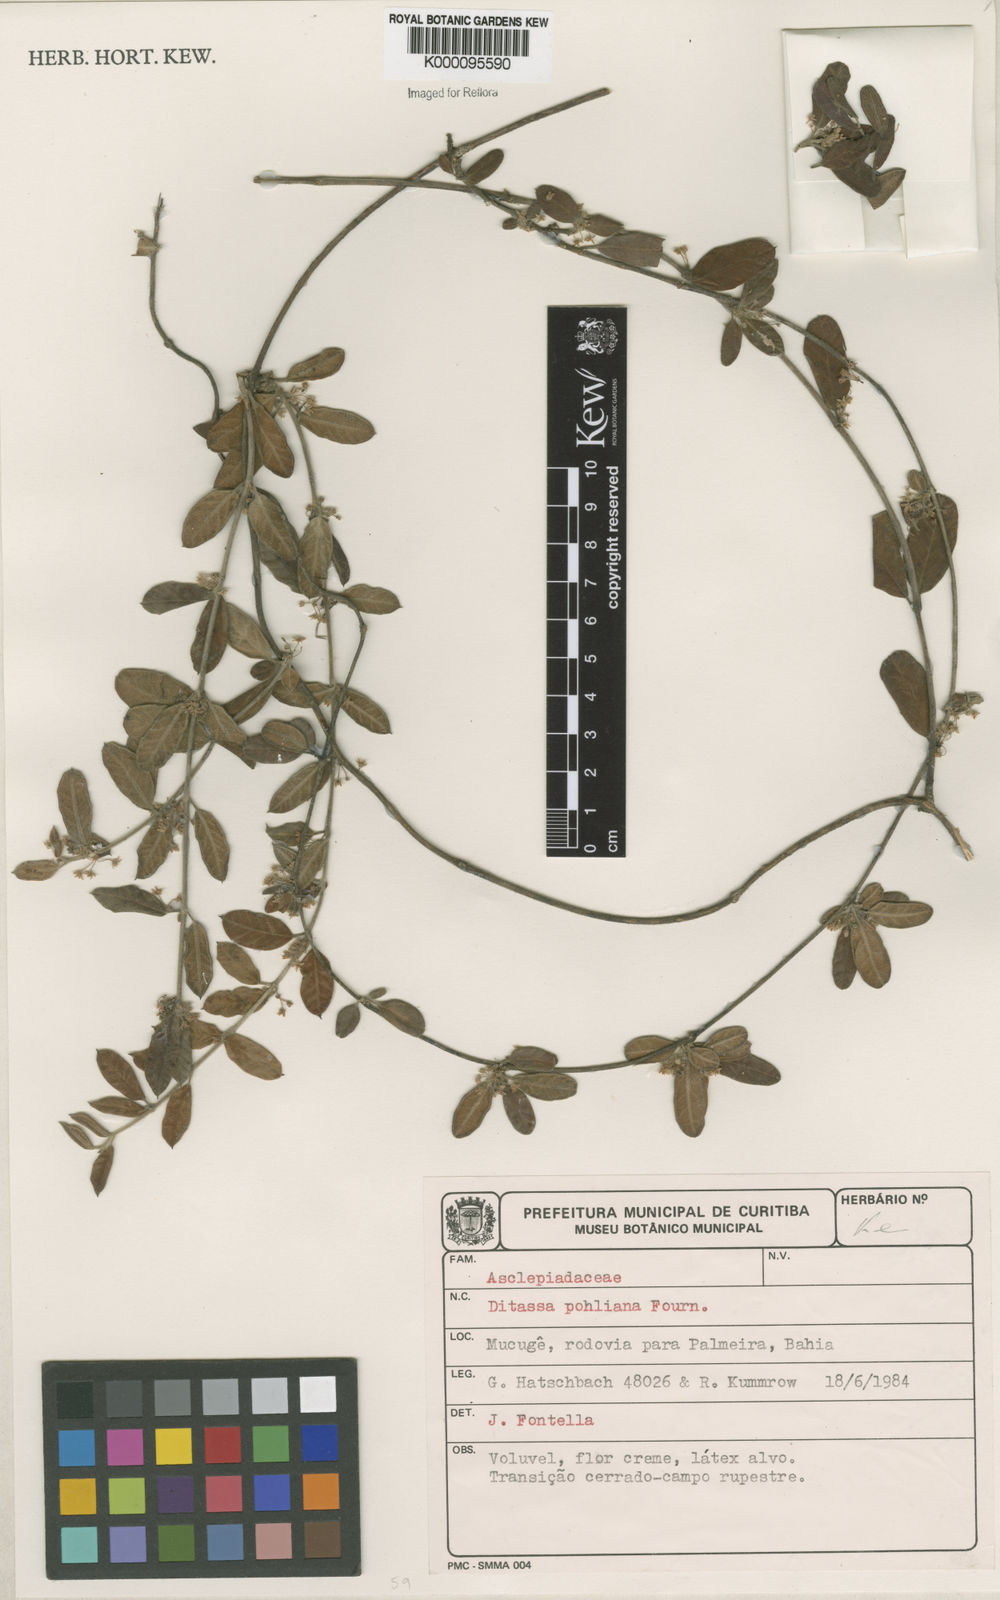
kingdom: Plantae
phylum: Tracheophyta
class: Magnoliopsida
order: Gentianales
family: Apocynaceae
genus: Ditassa
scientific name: Ditassa pohliana
